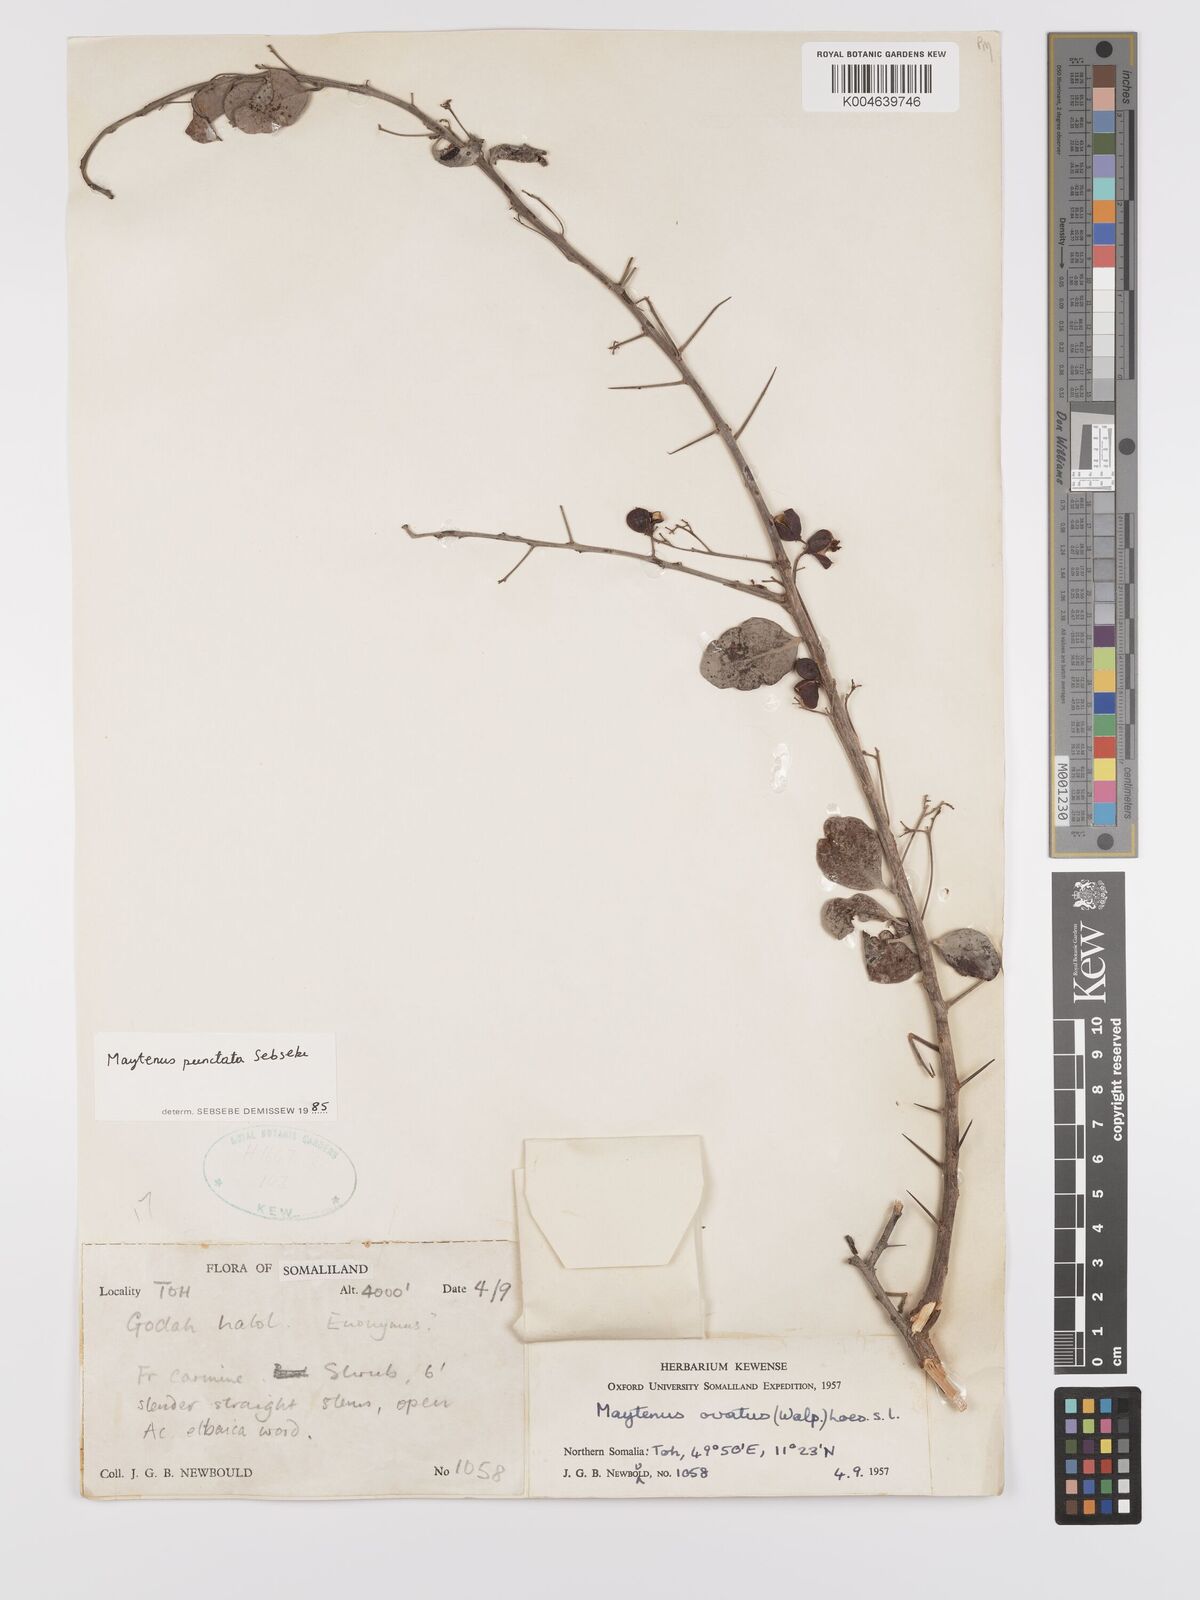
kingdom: Plantae
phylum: Tracheophyta
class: Magnoliopsida
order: Celastrales
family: Celastraceae
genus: Gymnosporia
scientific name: Gymnosporia punctata
